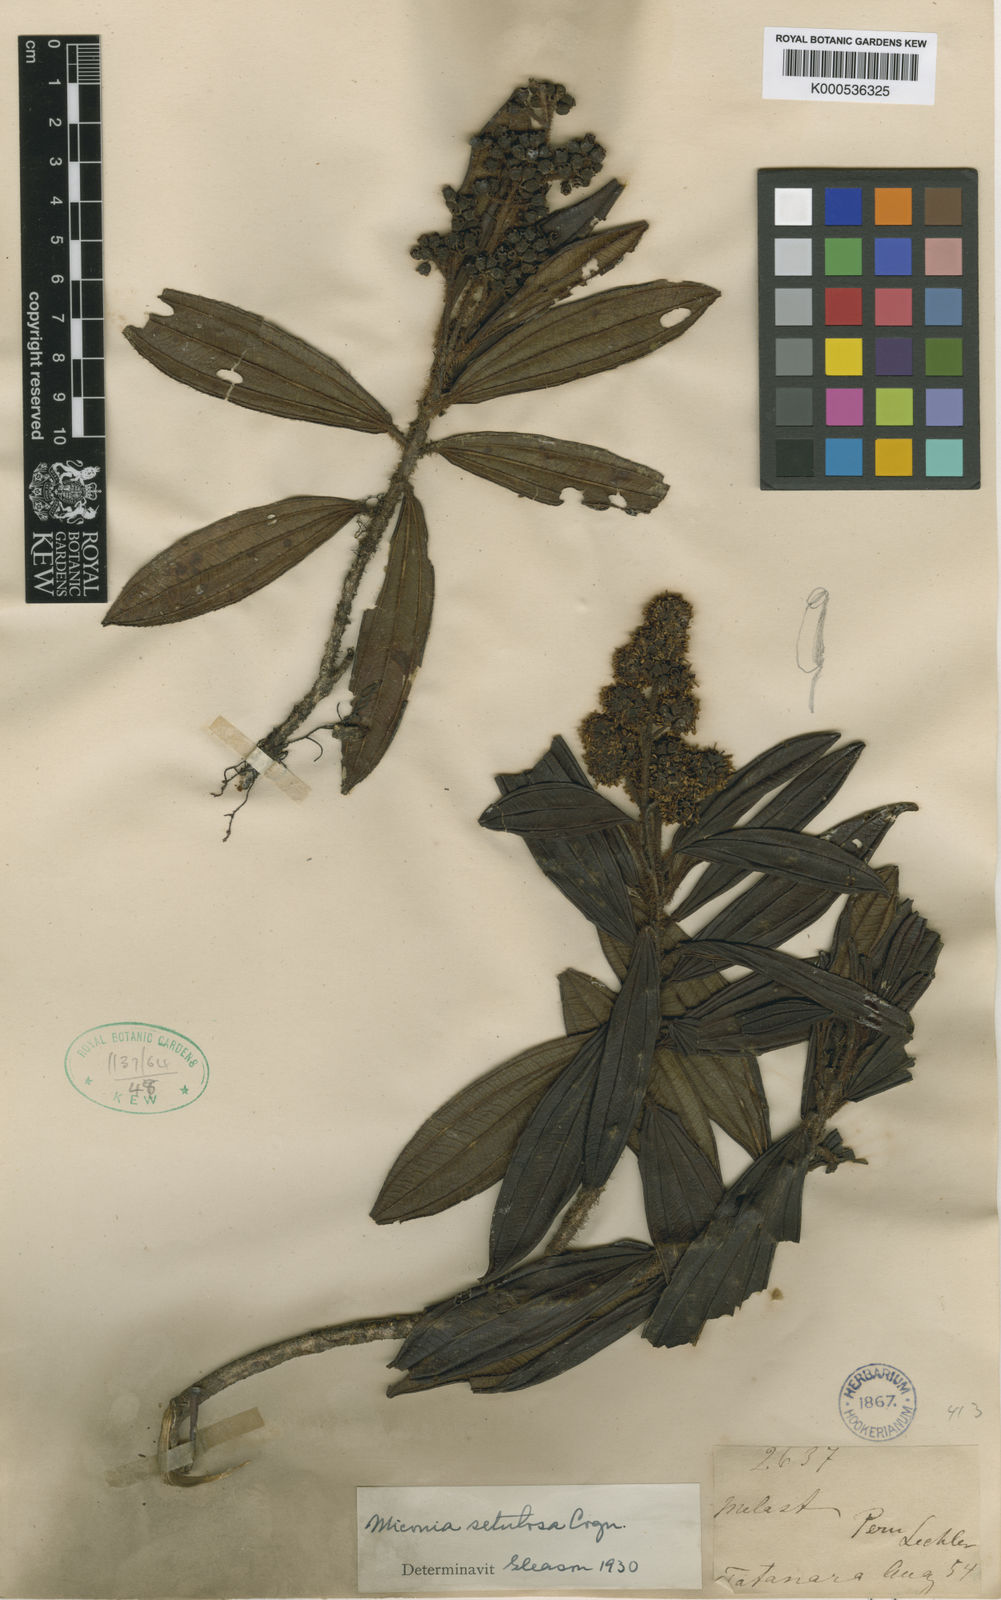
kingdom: Plantae
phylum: Tracheophyta
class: Magnoliopsida
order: Myrtales
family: Melastomataceae
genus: Miconia
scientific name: Miconia setulosa
